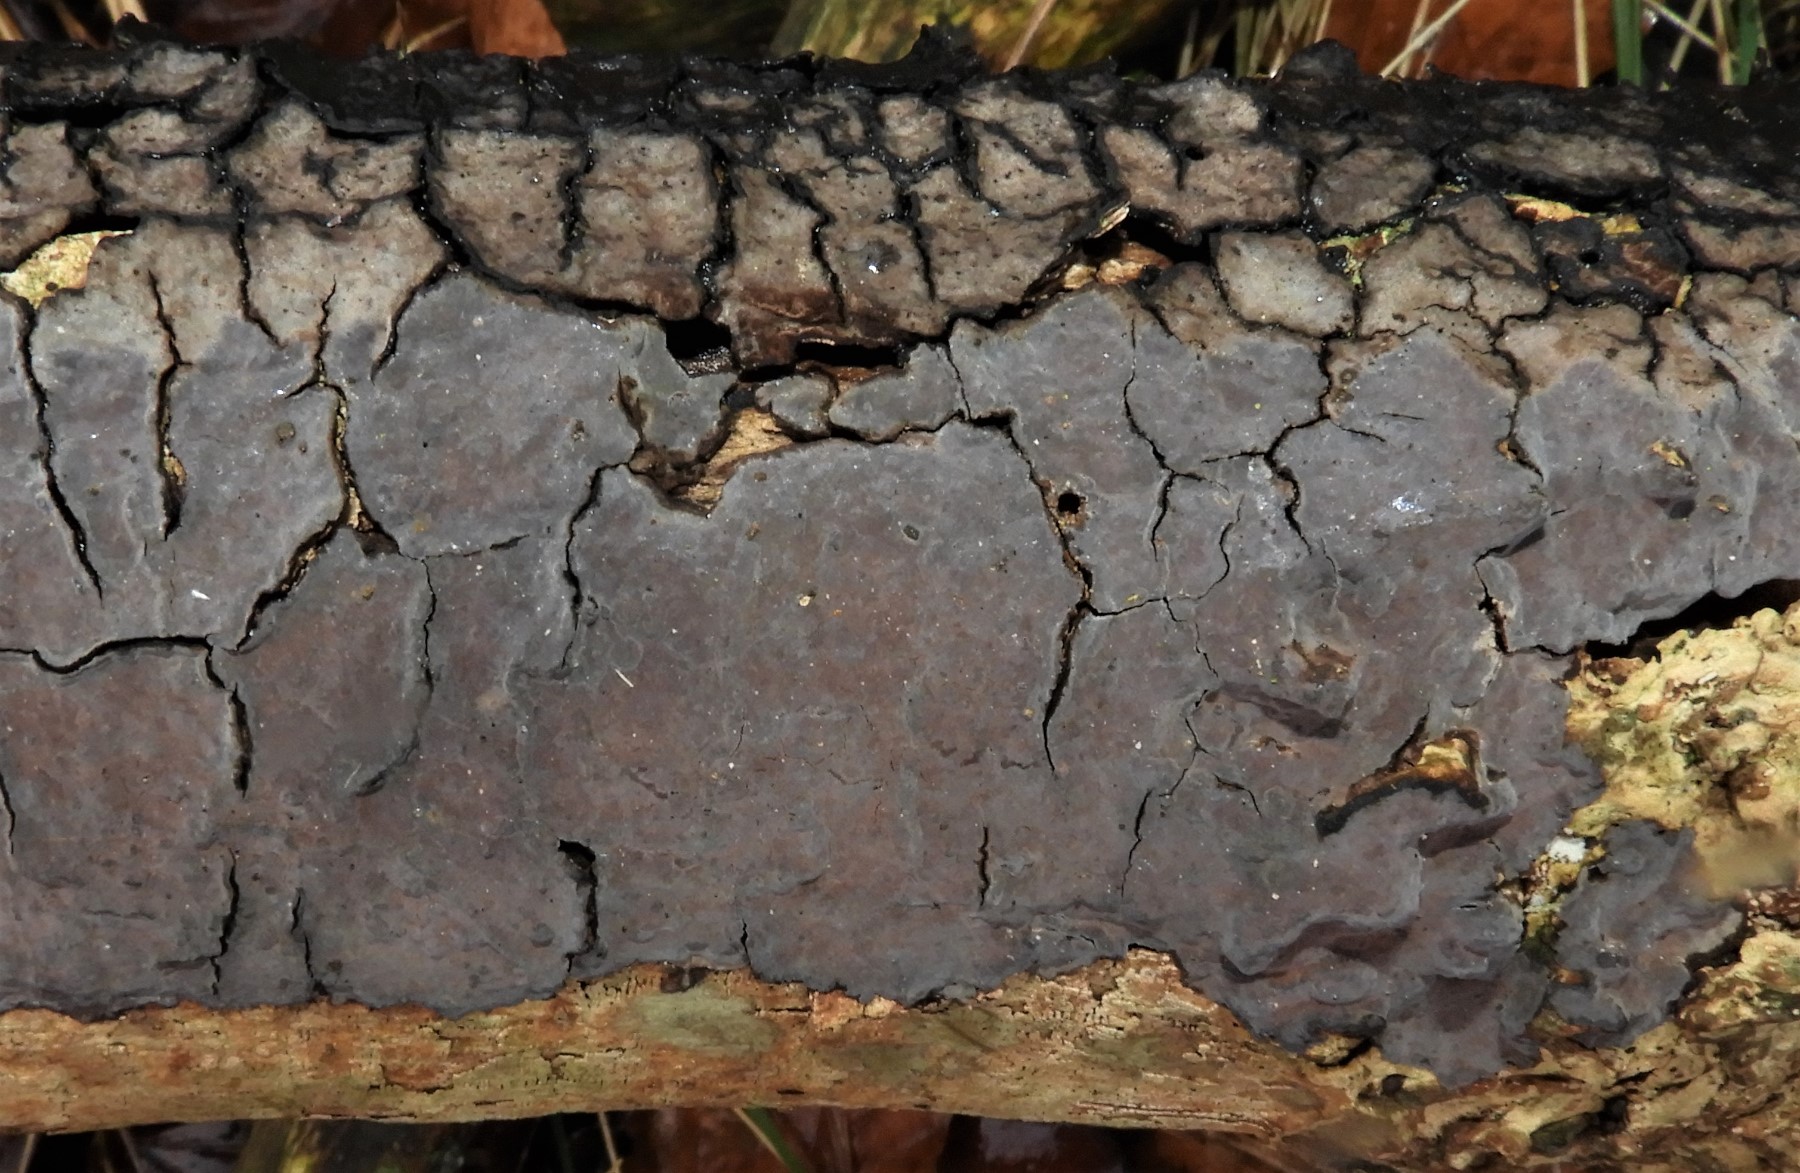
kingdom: Fungi
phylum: Basidiomycota
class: Agaricomycetes
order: Russulales
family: Peniophoraceae
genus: Peniophora
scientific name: Peniophora quercina
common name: ege-voksskind
